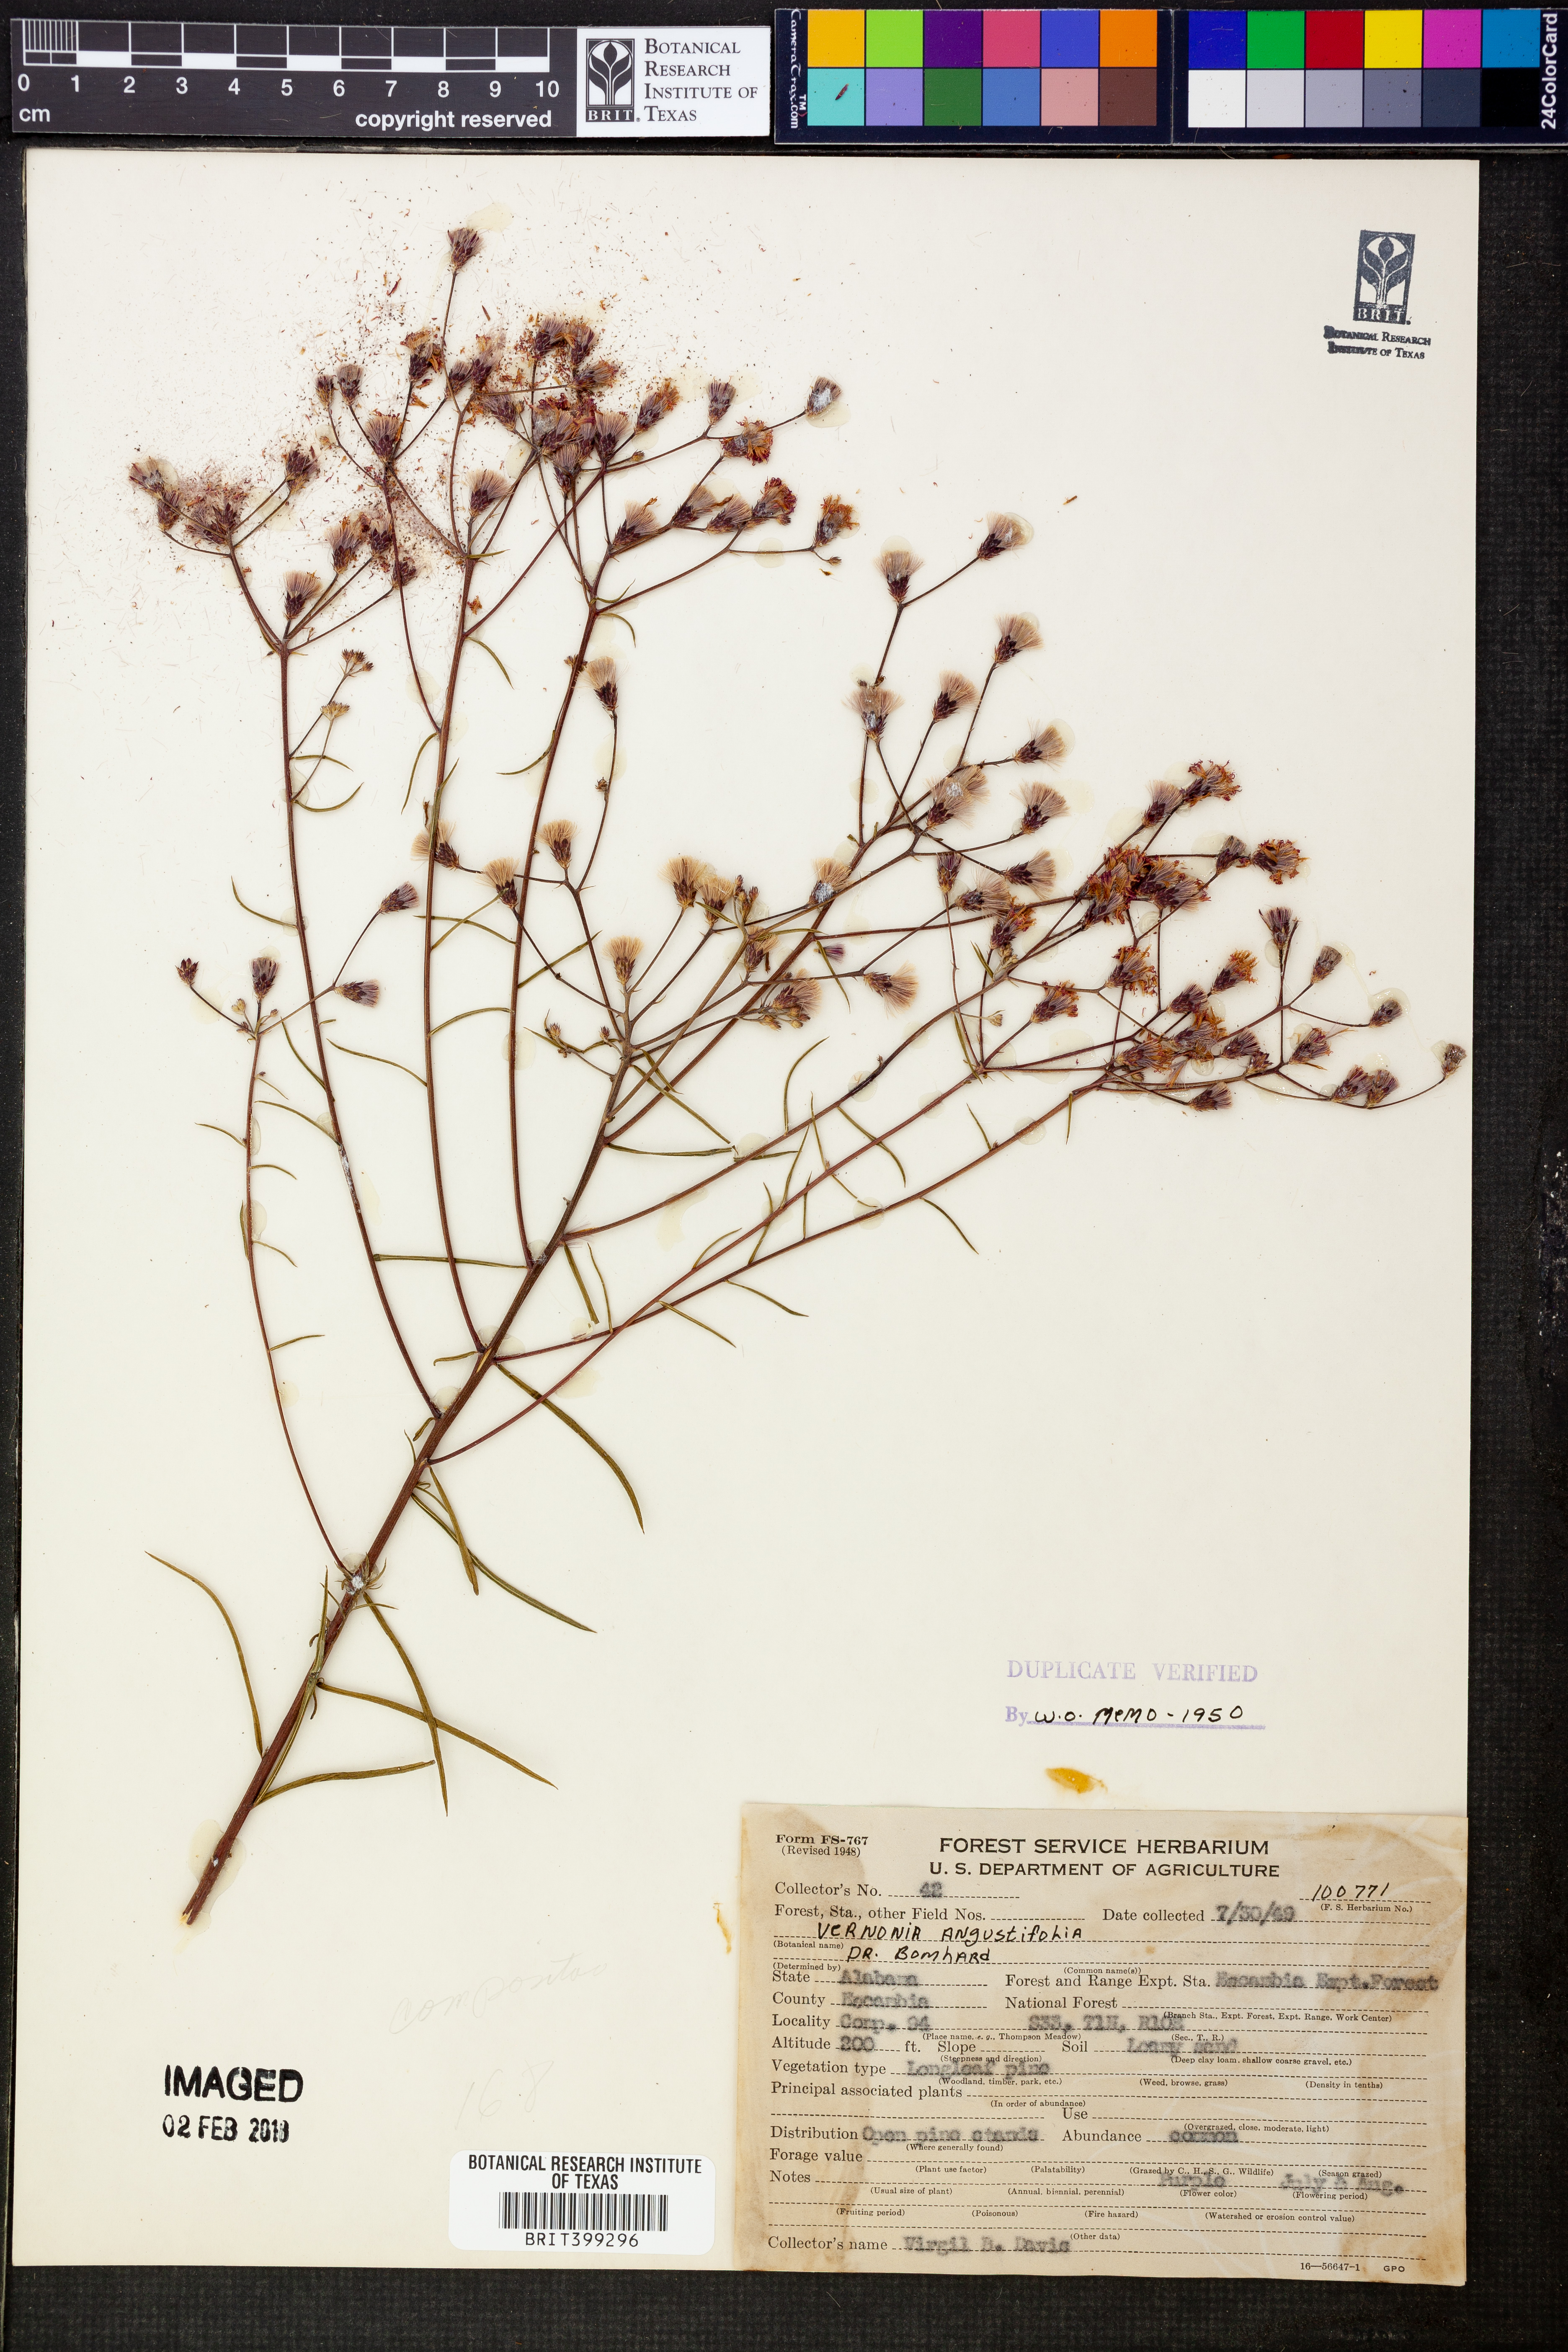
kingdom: Plantae
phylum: Tracheophyta
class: Magnoliopsida
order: Asterales
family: Asteraceae
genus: Vernonia
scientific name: Vernonia angustifolia
